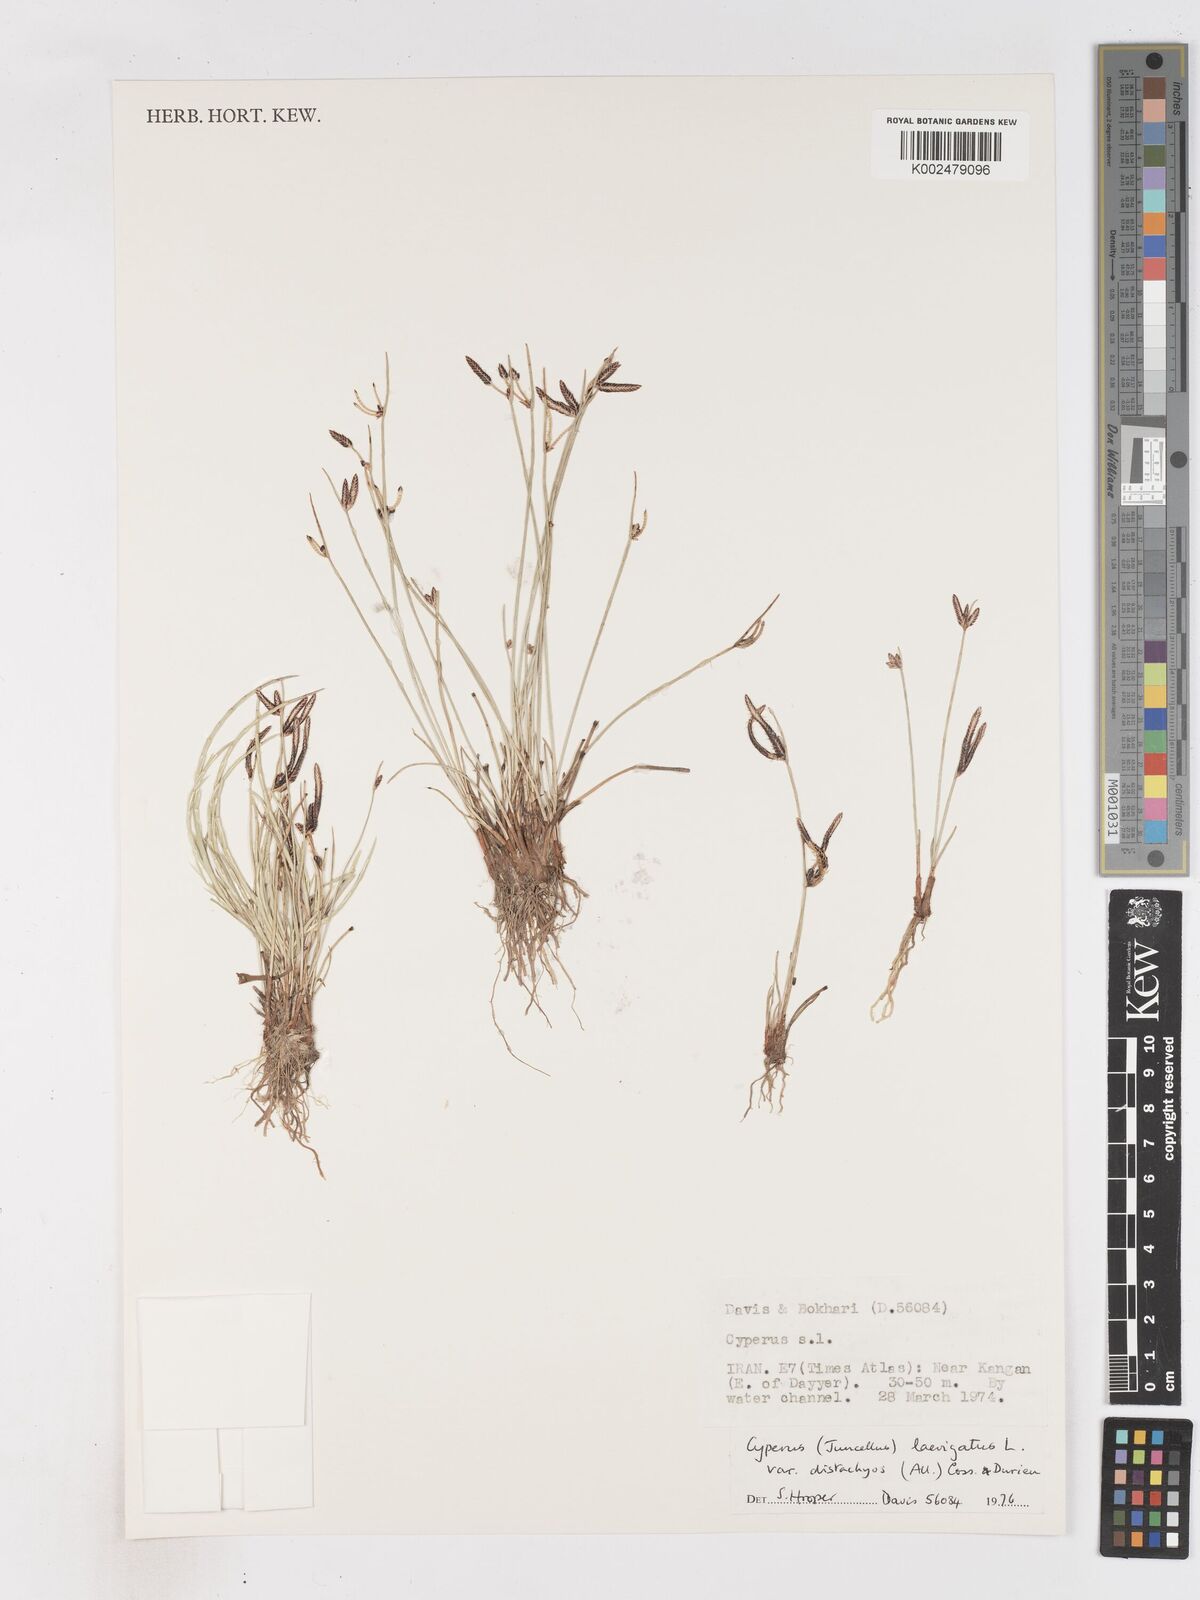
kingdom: Plantae
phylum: Tracheophyta
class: Liliopsida
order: Poales
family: Cyperaceae
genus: Cyperus
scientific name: Cyperus laevigatus
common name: Smooth flat sedge
